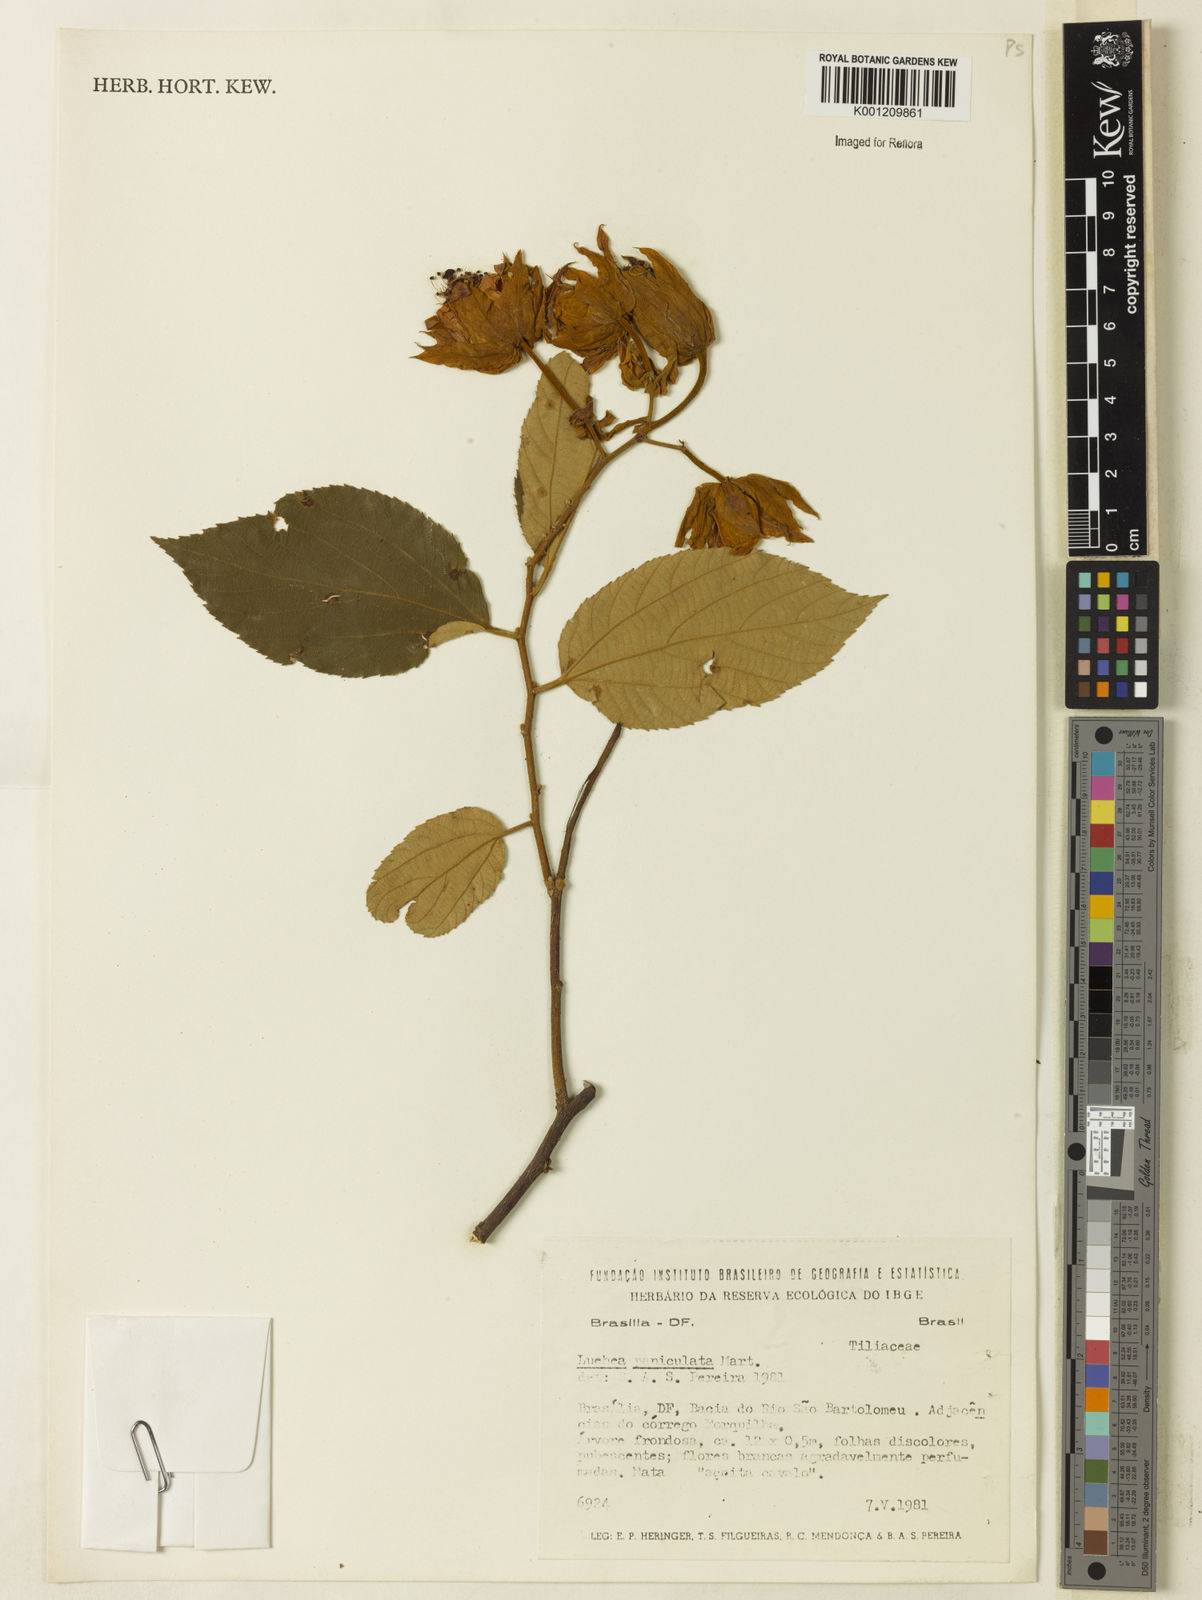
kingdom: Plantae
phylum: Tracheophyta
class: Magnoliopsida
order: Malvales
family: Malvaceae
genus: Luehea
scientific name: Luehea paniculata
